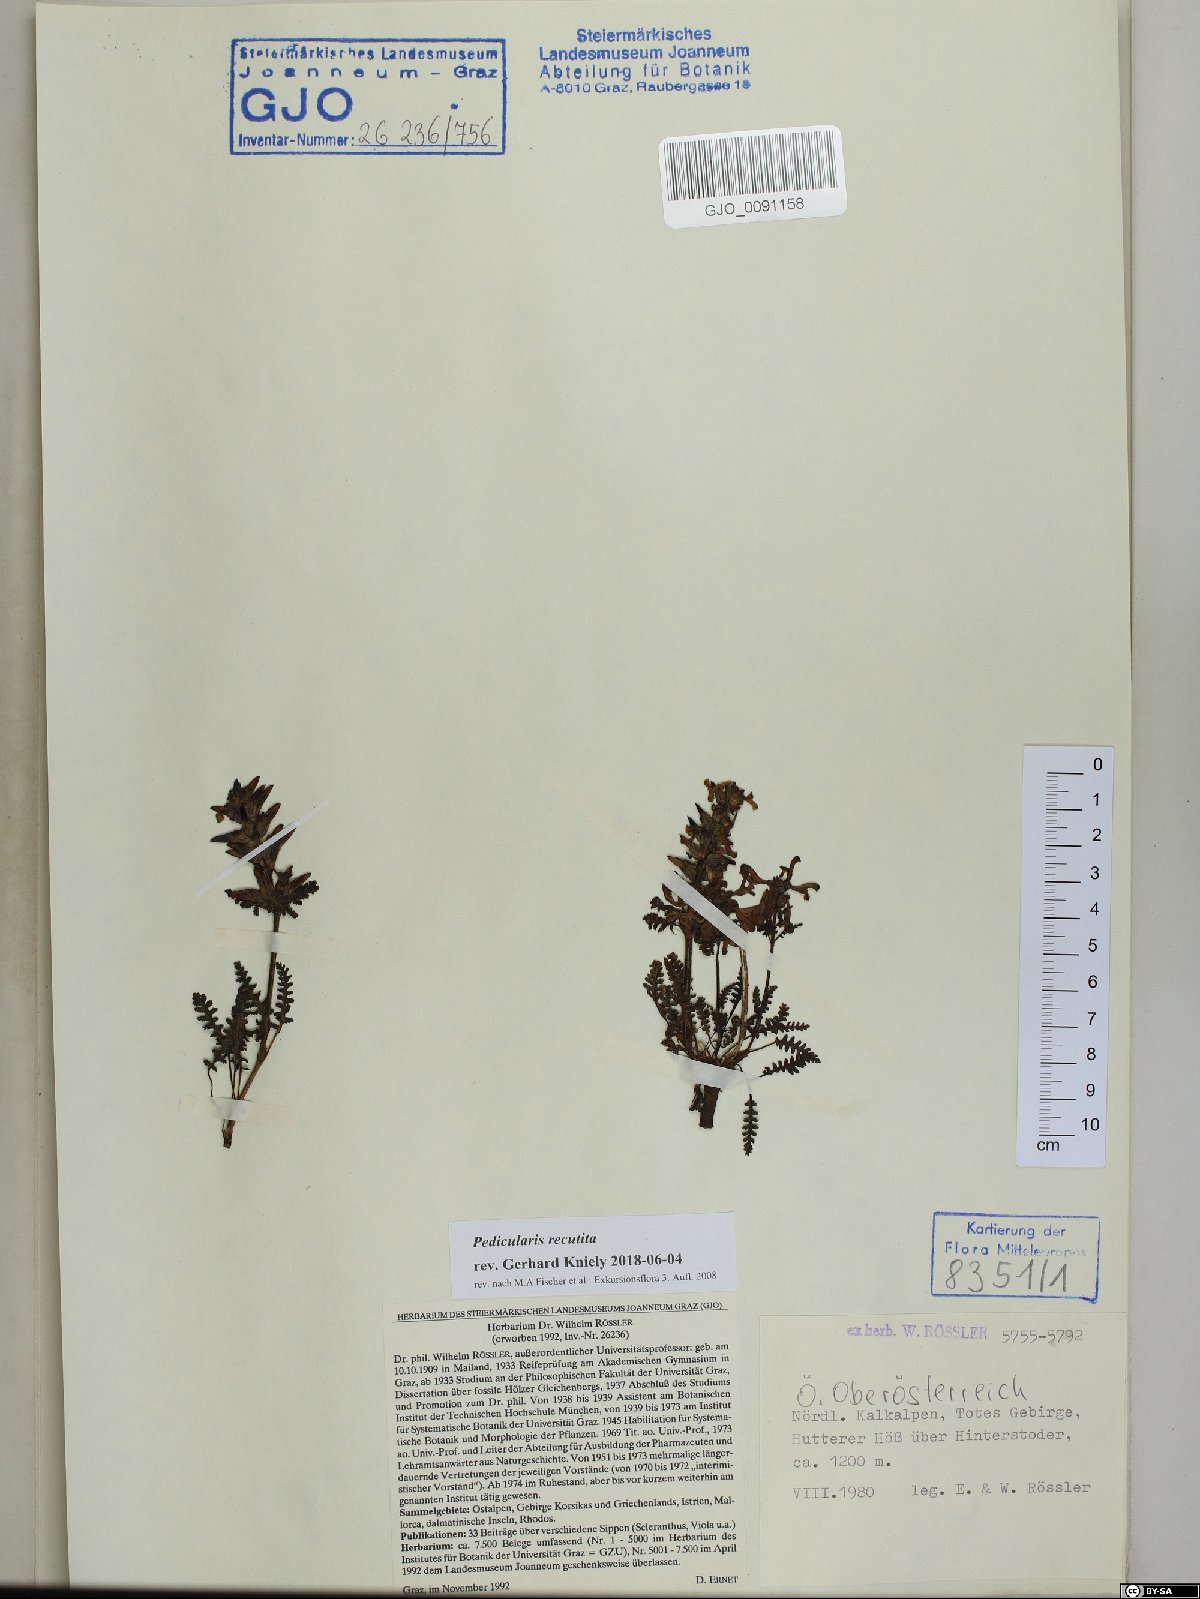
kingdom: Plantae
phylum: Tracheophyta
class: Magnoliopsida
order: Lamiales
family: Orobanchaceae
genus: Pedicularis
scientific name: Pedicularis recutita
